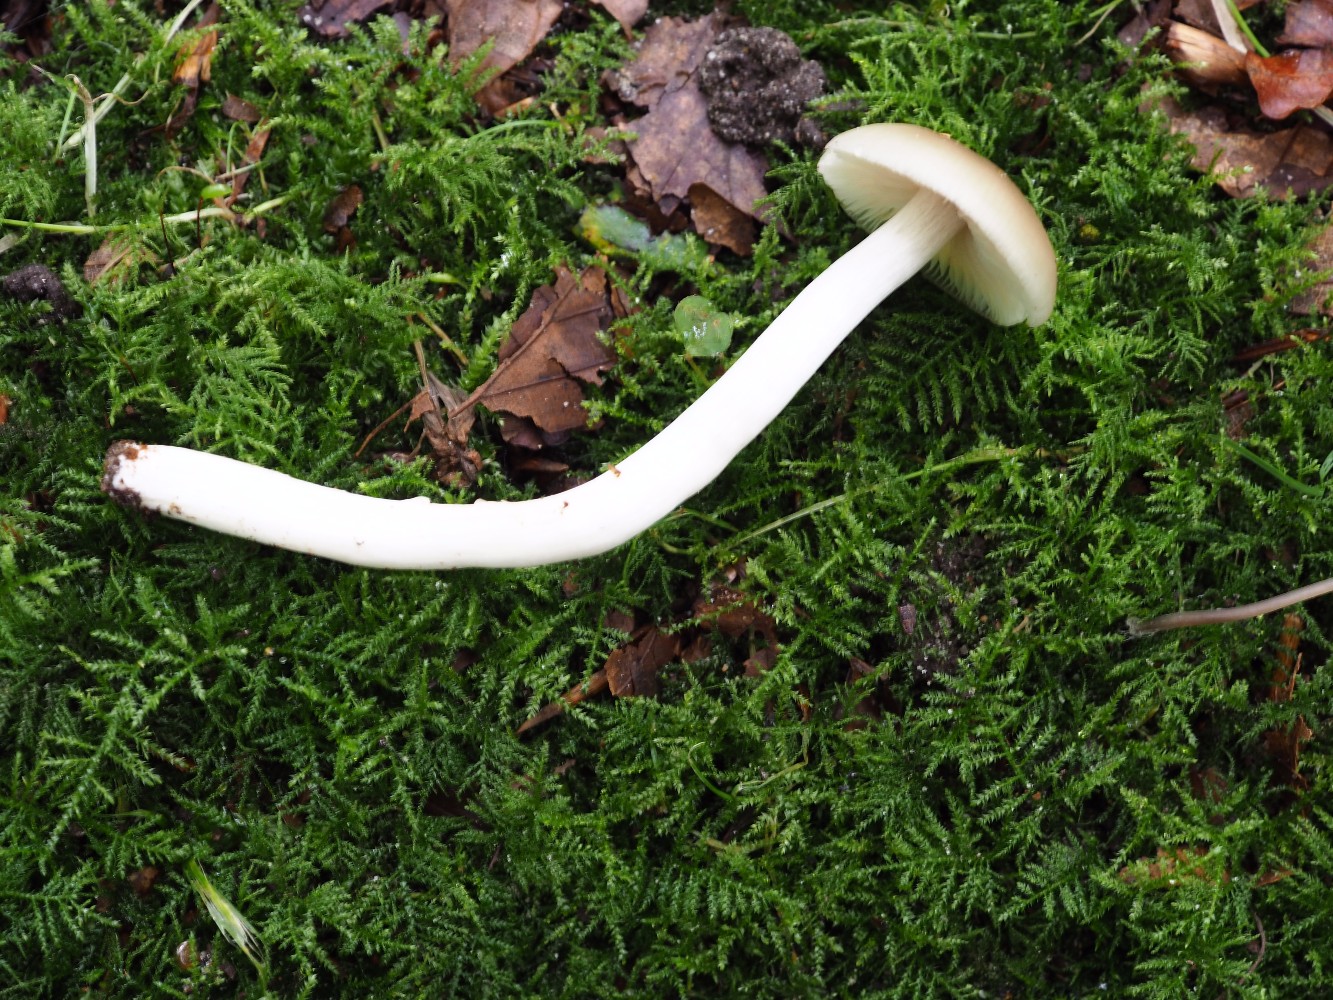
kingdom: Fungi
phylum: Basidiomycota
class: Agaricomycetes
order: Agaricales
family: Entolomataceae
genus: Entoloma
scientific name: Entoloma
